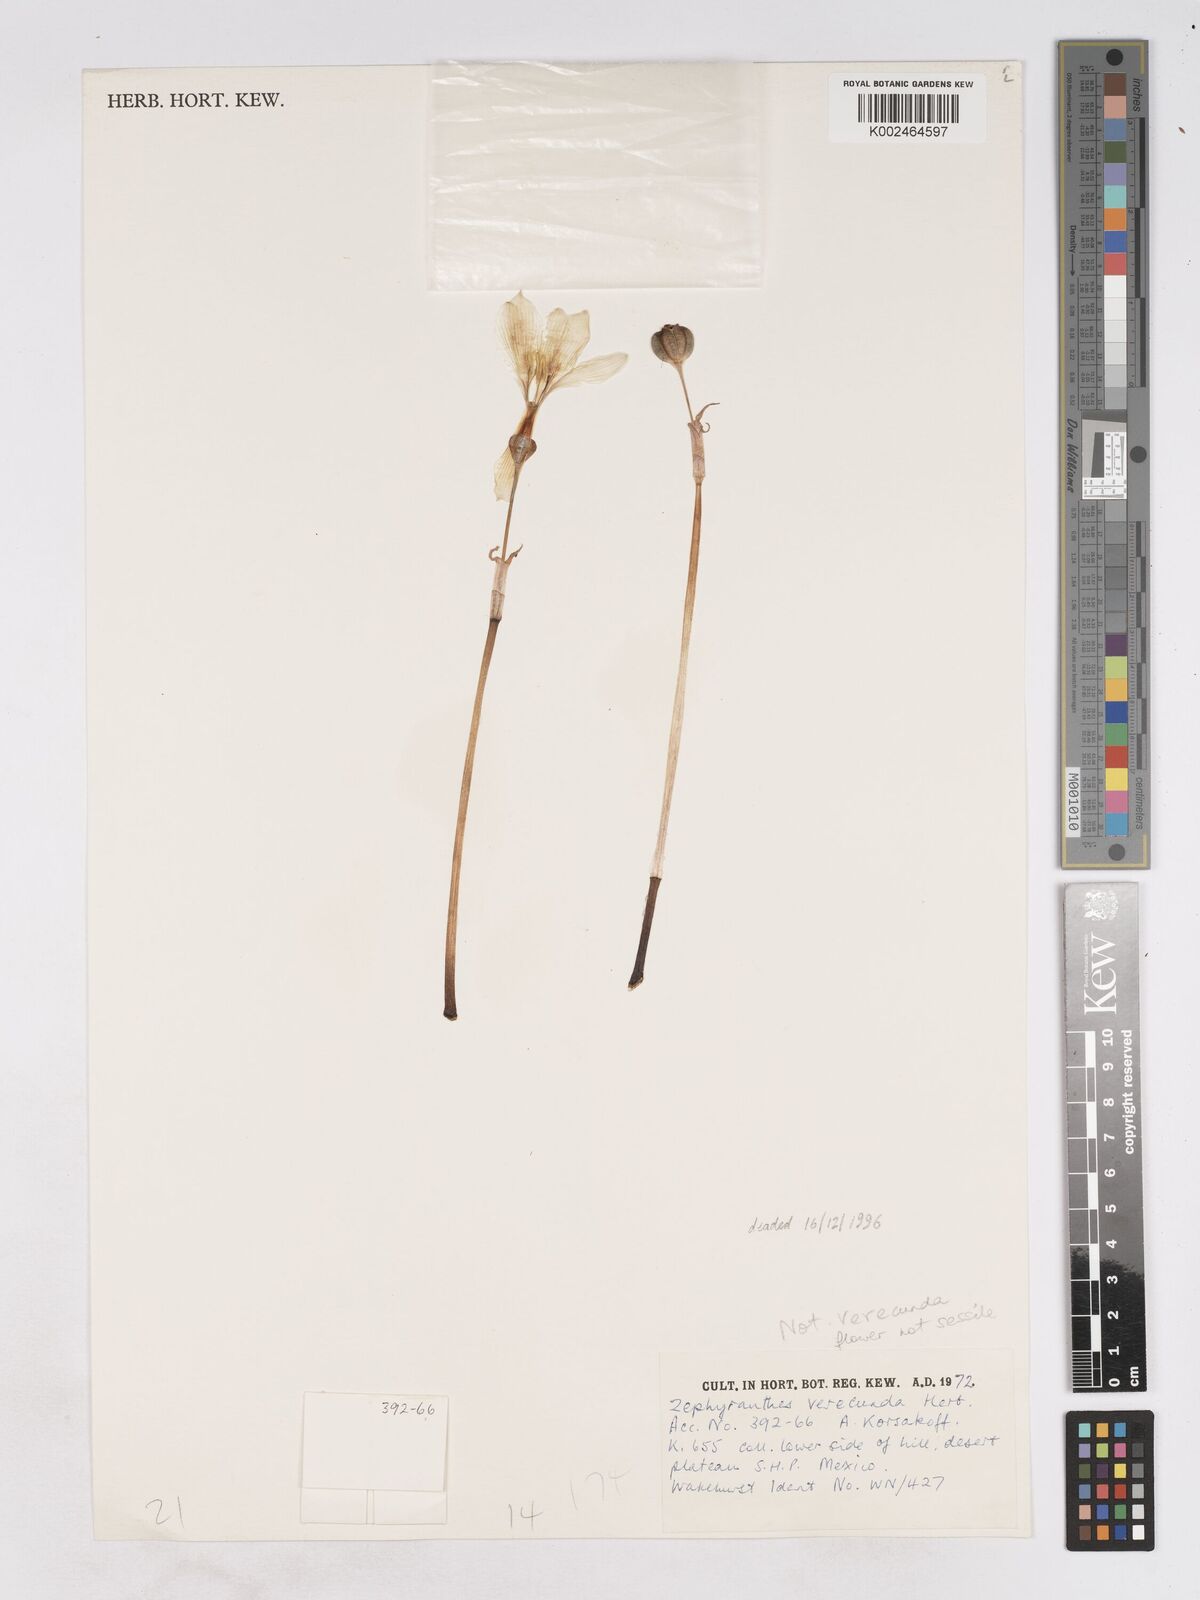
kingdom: Plantae
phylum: Tracheophyta
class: Liliopsida
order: Asparagales
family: Amaryllidaceae
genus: Zephyranthes
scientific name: Zephyranthes minuta
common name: Pink rain lily
